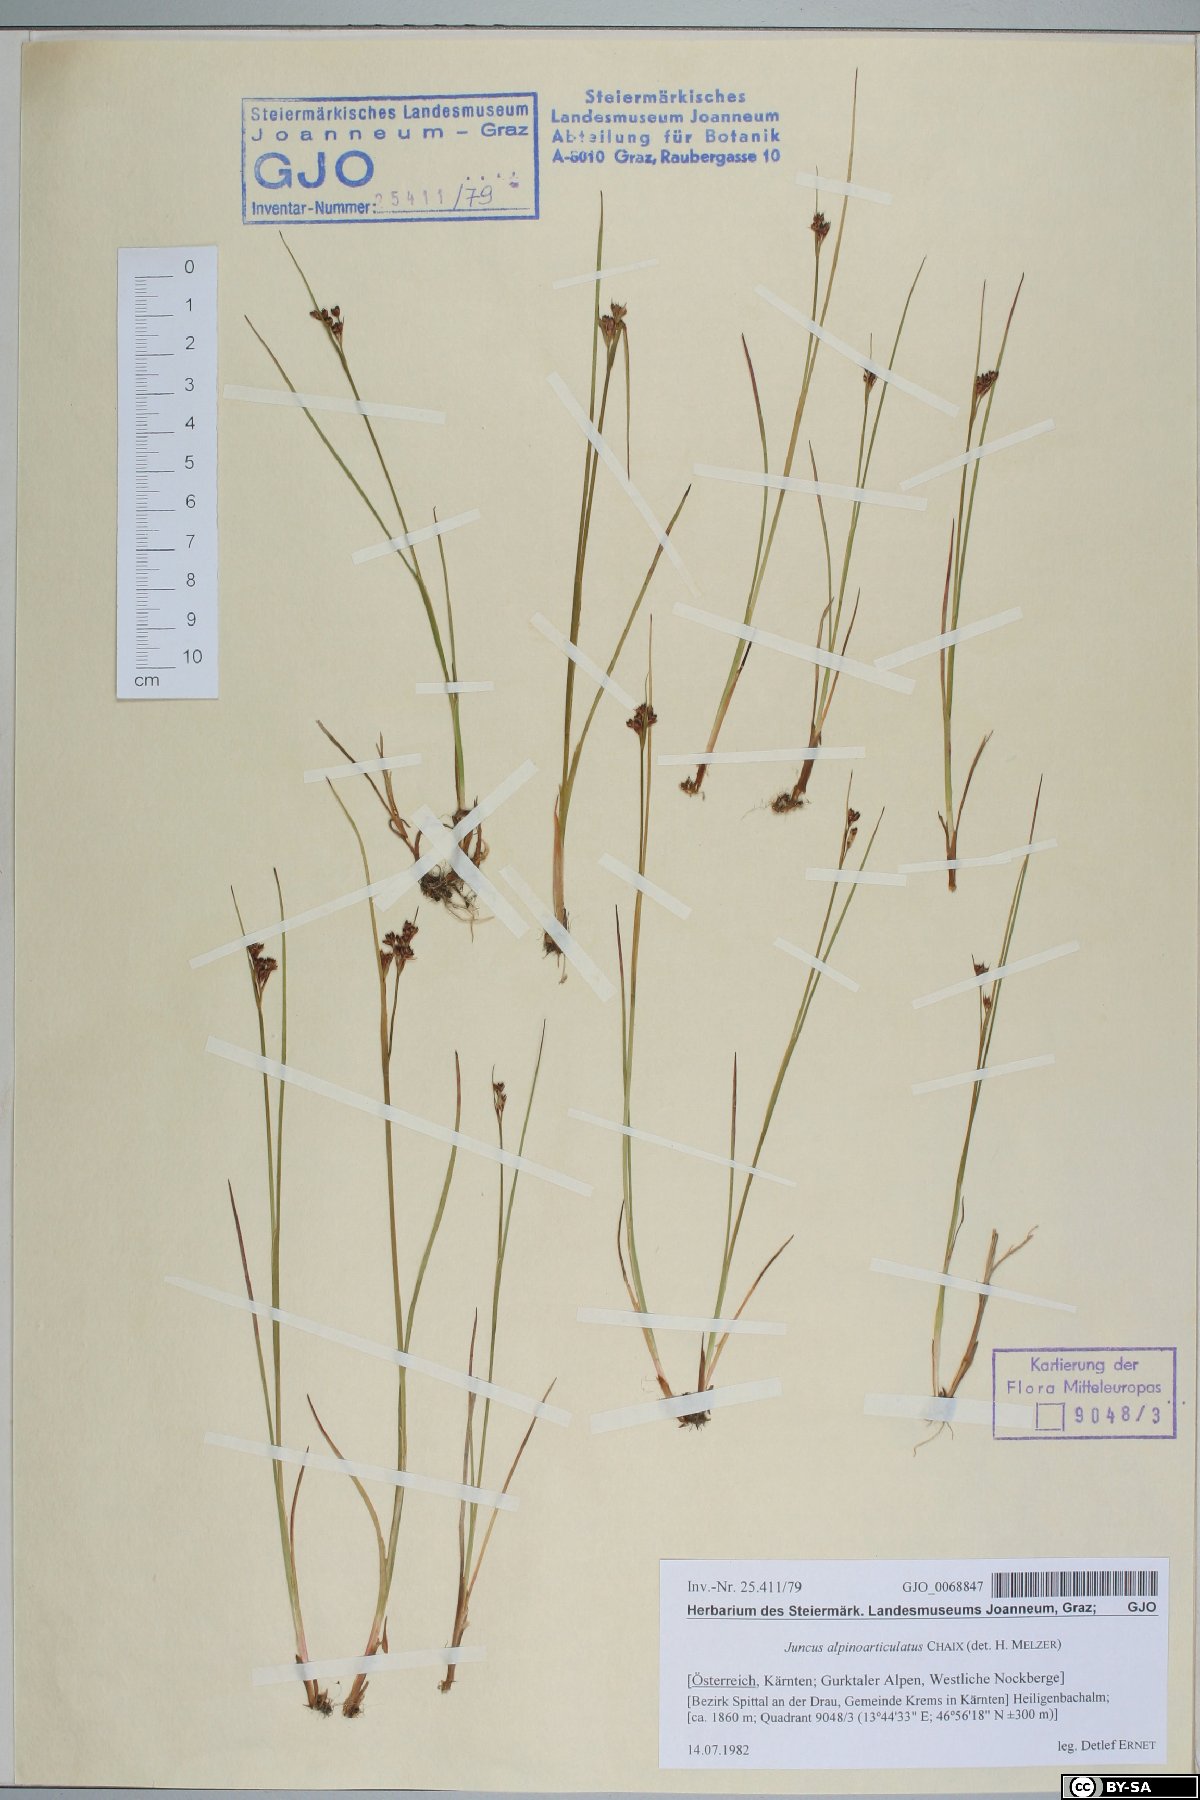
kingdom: Plantae
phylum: Tracheophyta
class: Liliopsida
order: Poales
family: Juncaceae
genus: Juncus
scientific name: Juncus alpinoarticulatus
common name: Alpine rush
